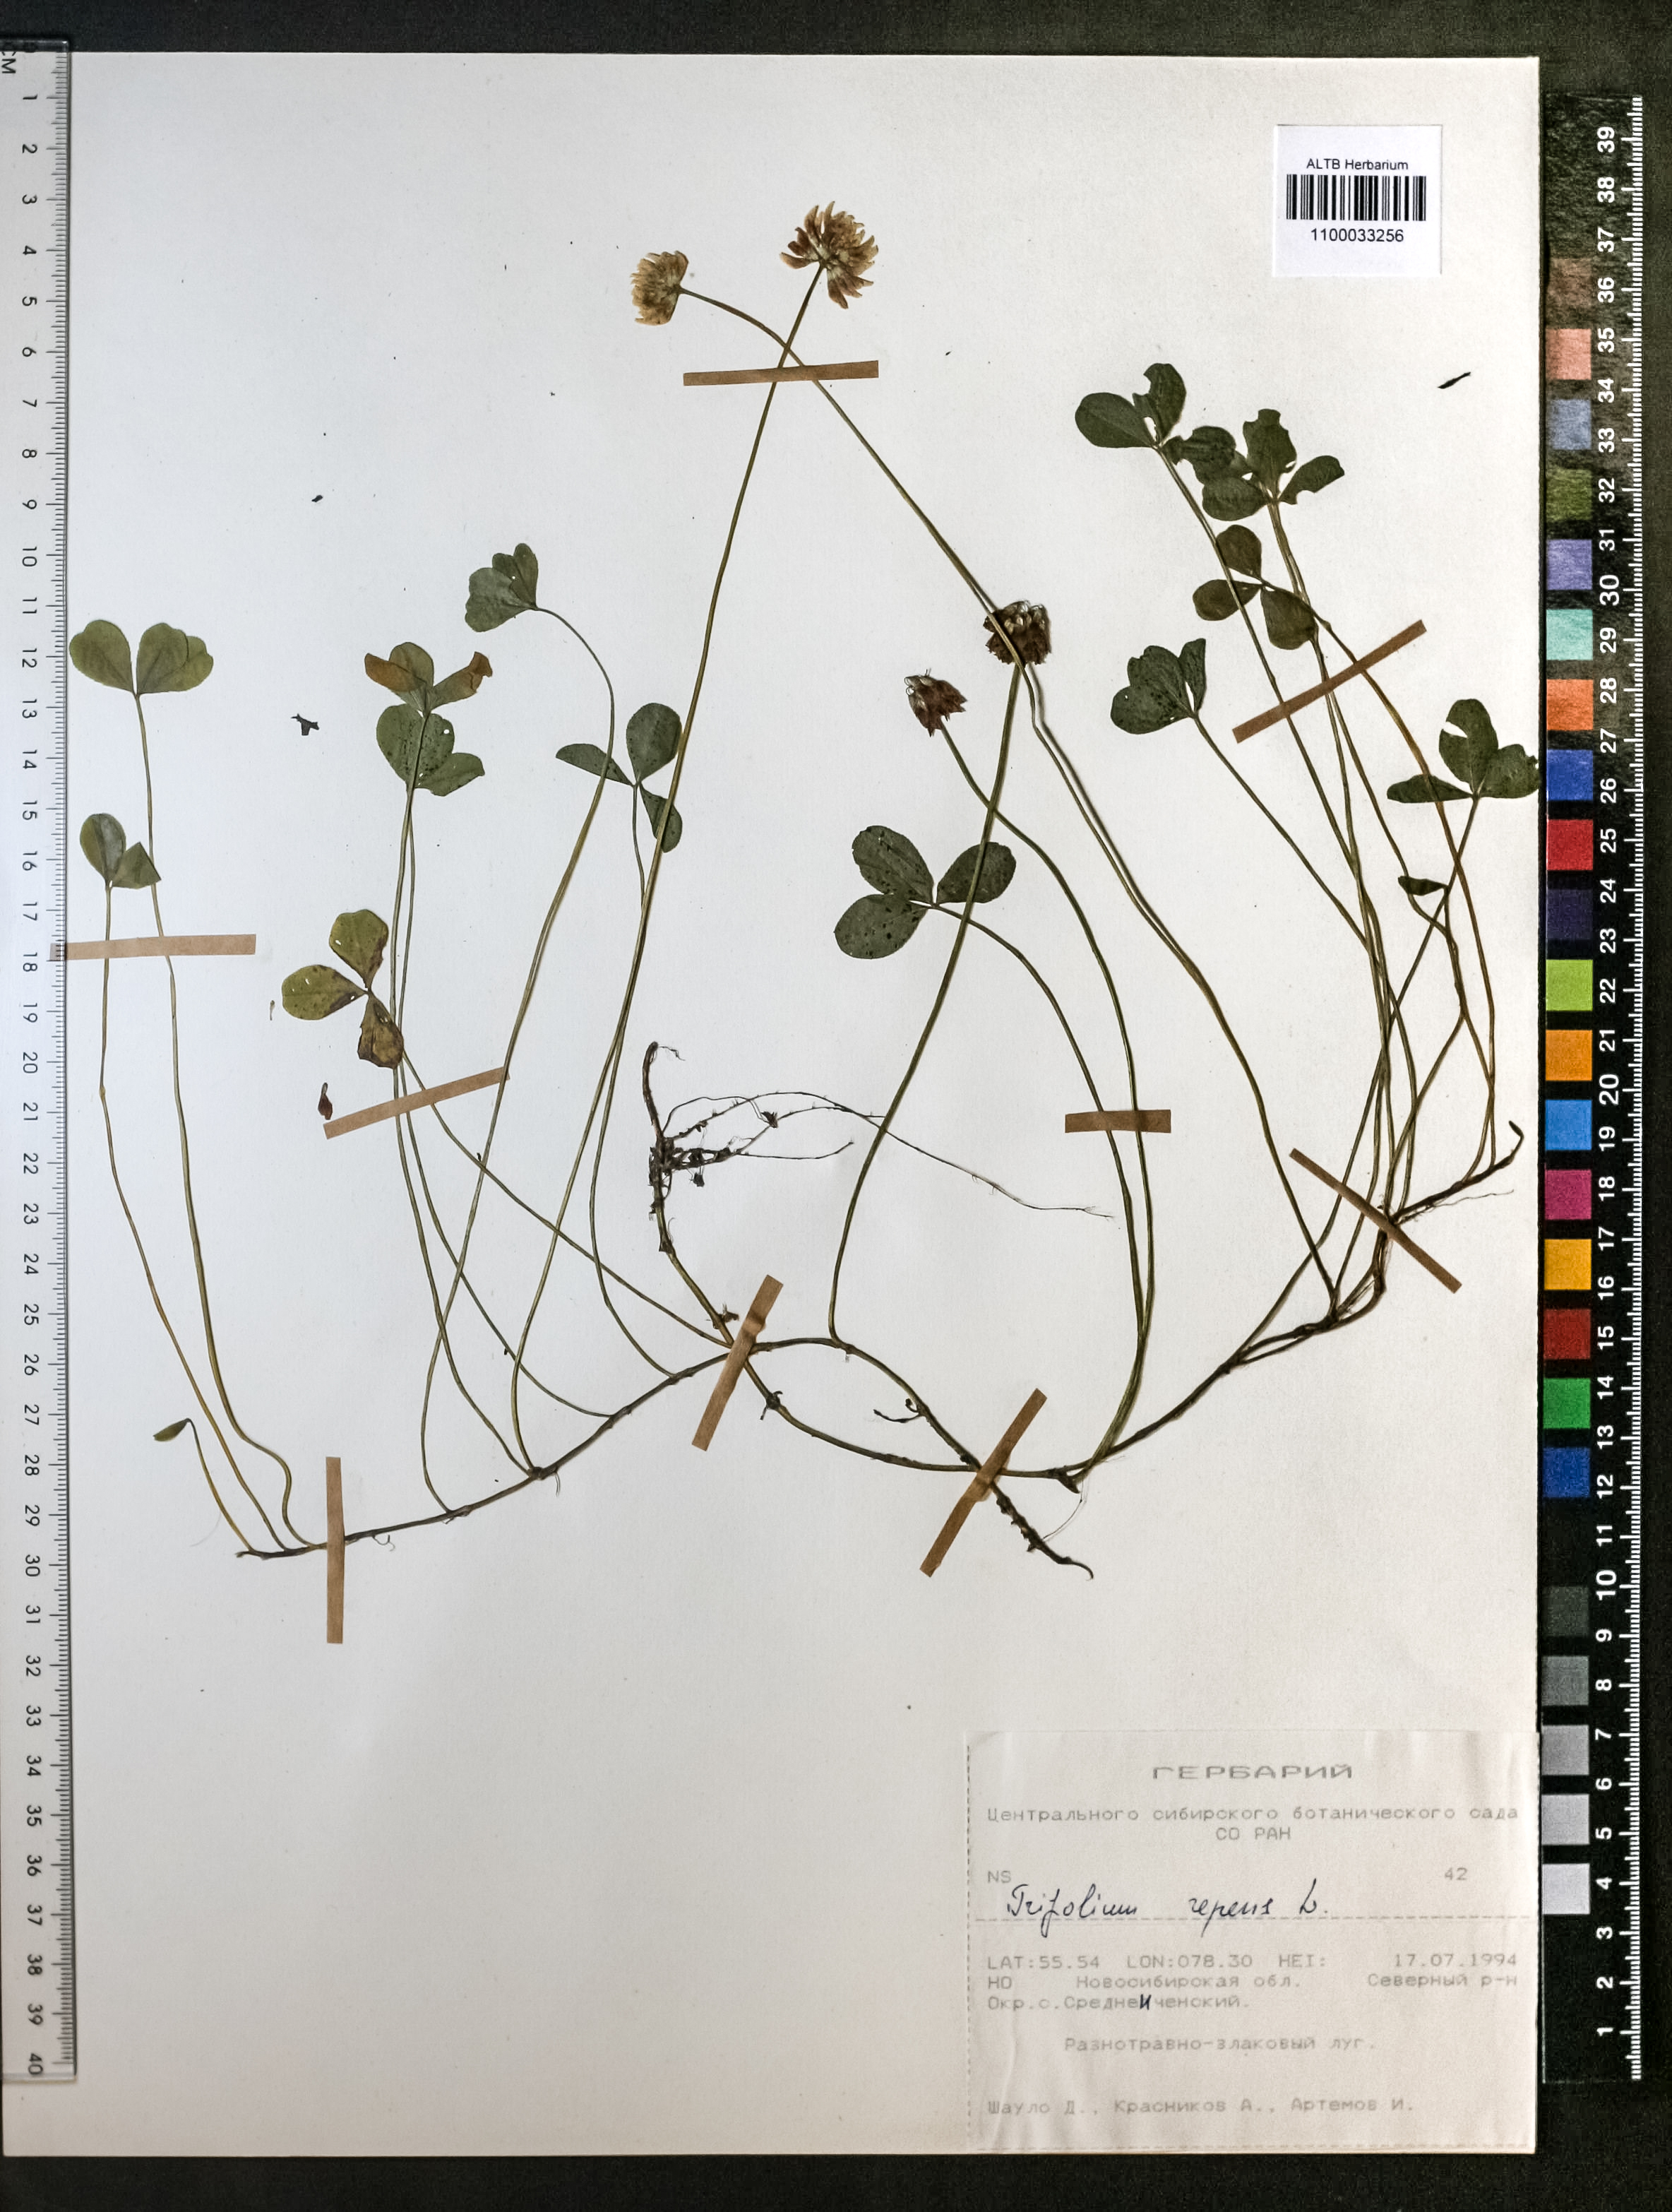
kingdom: Plantae
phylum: Tracheophyta
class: Magnoliopsida
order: Fabales
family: Fabaceae
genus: Trifolium
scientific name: Trifolium repens
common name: White clover
